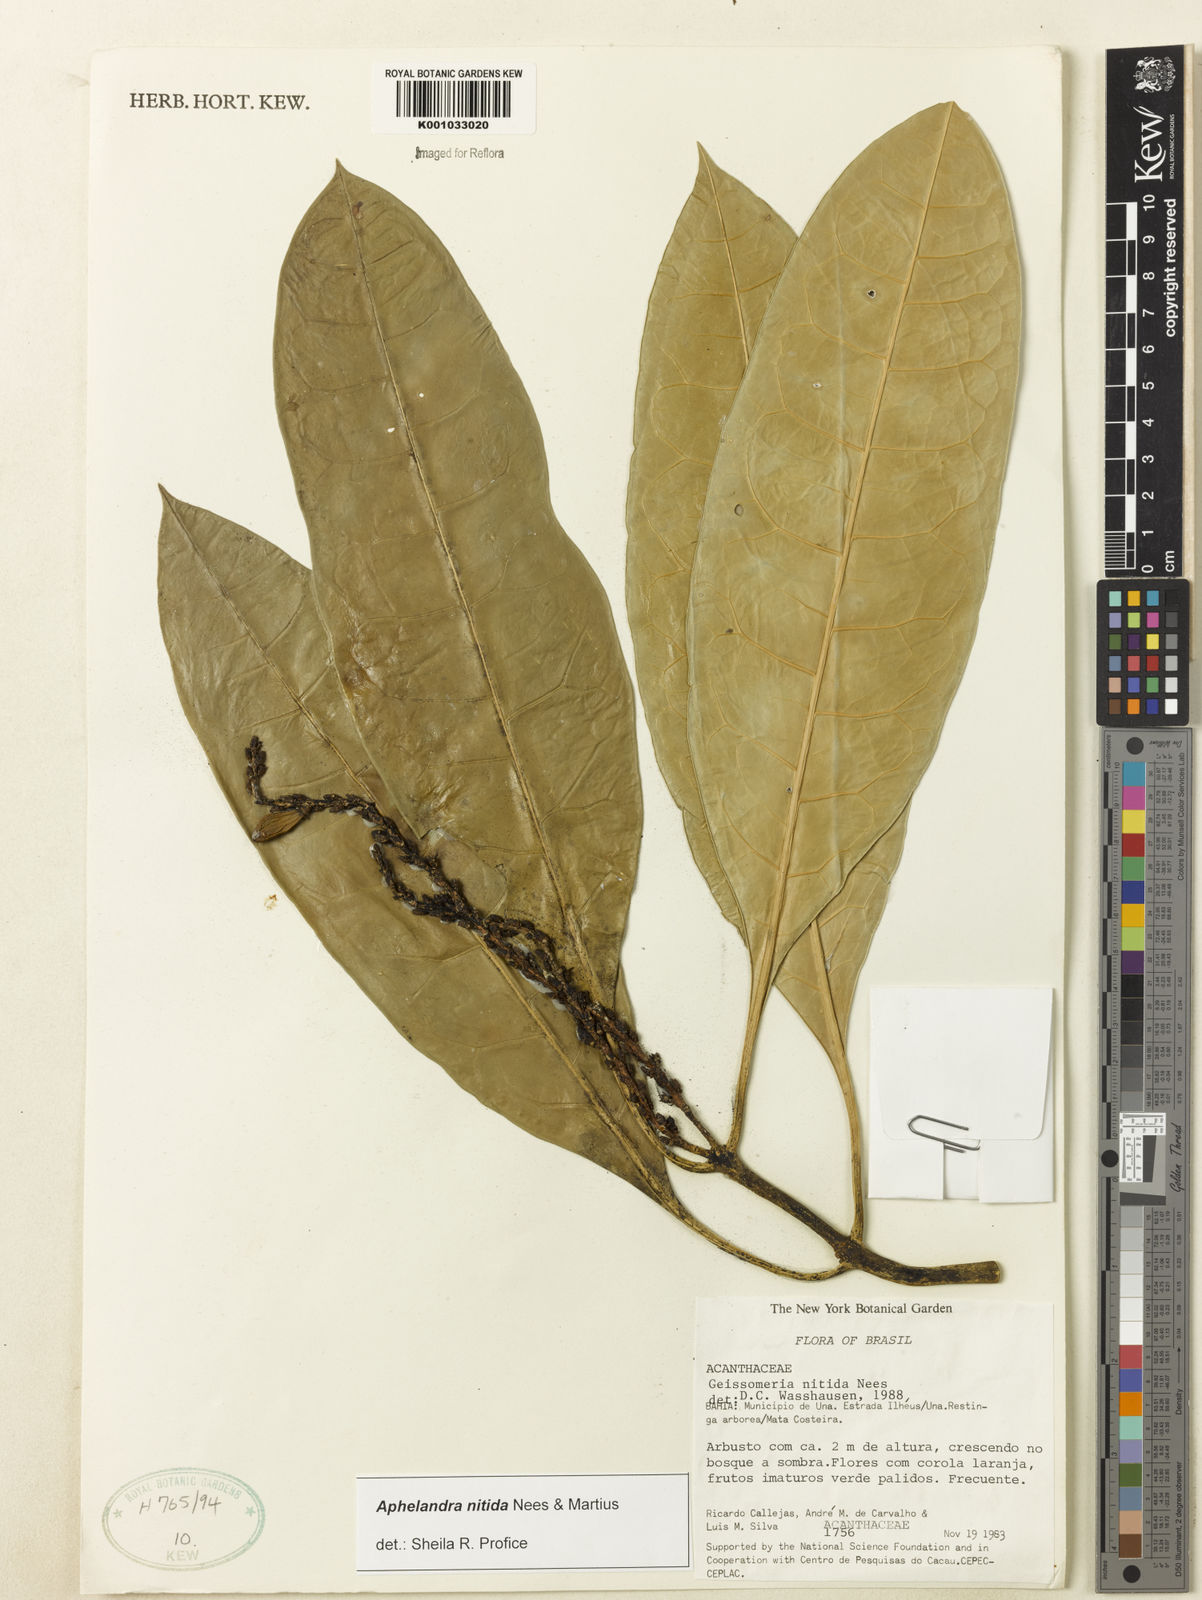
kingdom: Plantae
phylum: Tracheophyta
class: Magnoliopsida
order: Lamiales
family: Acanthaceae
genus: Aphelandra
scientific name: Aphelandra nitida
